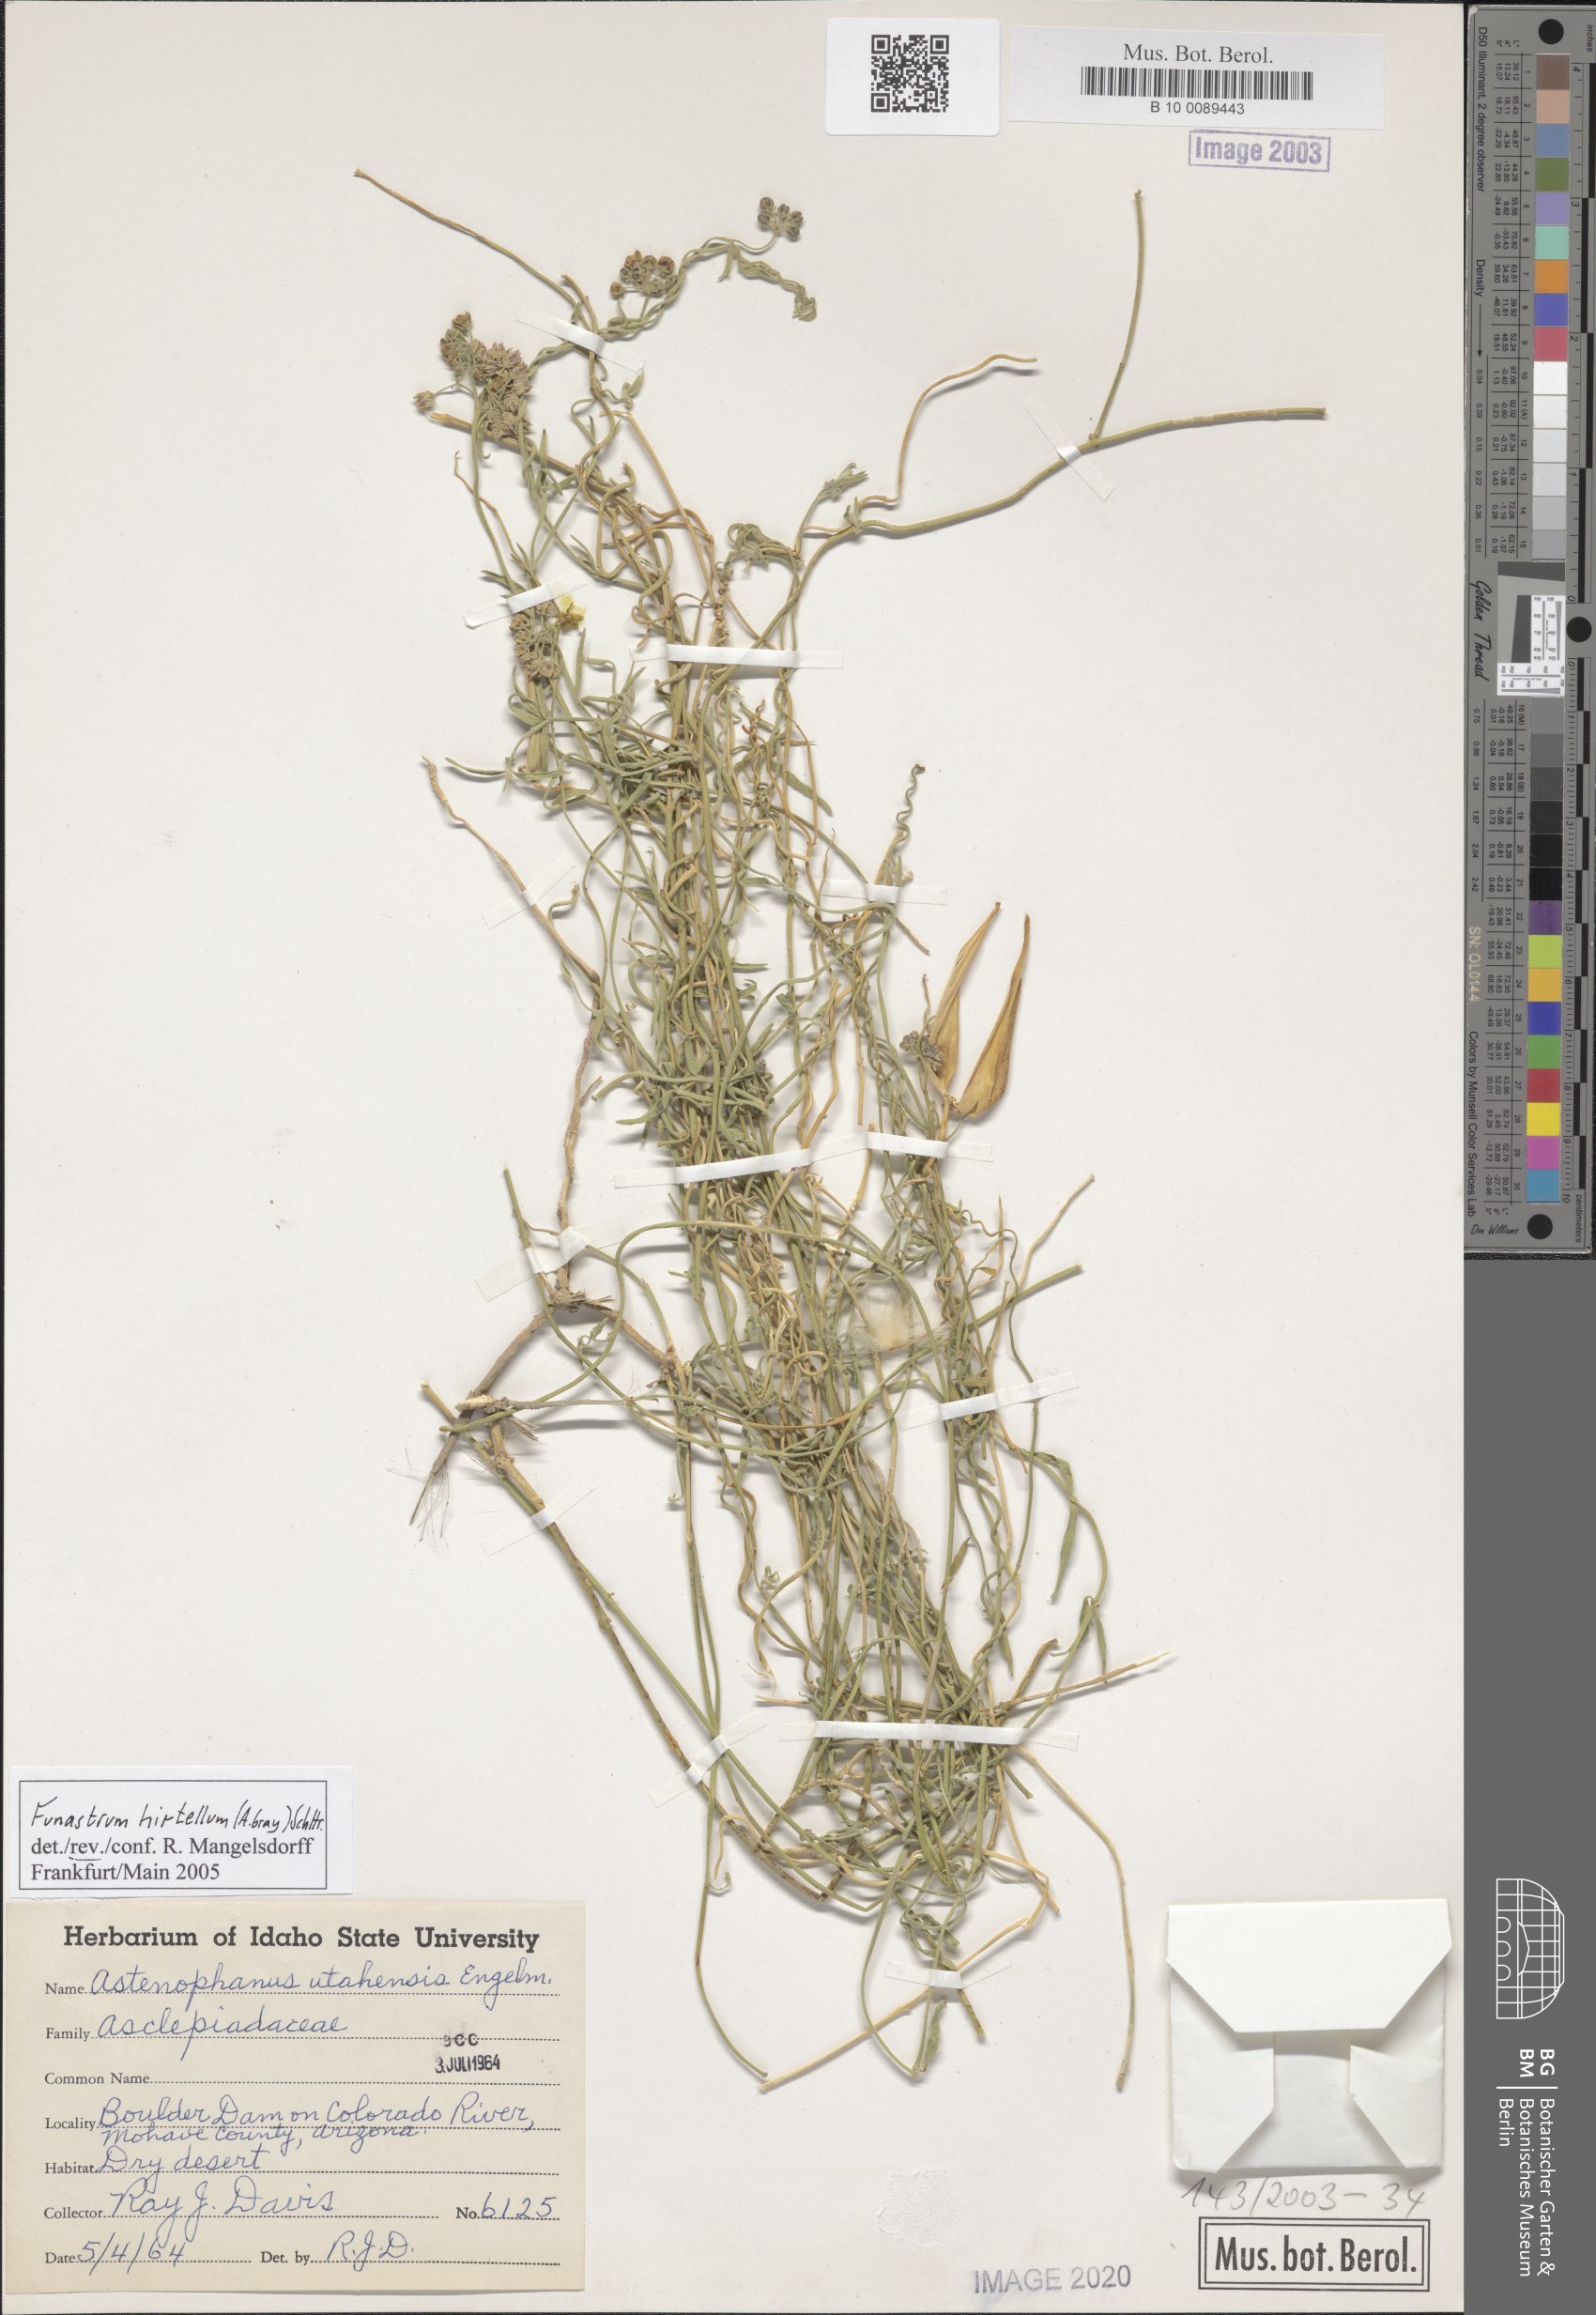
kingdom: Plantae
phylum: Tracheophyta
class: Magnoliopsida
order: Gentianales
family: Apocynaceae
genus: Funastrum
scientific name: Funastrum utahense
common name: Utah swallow-wort
